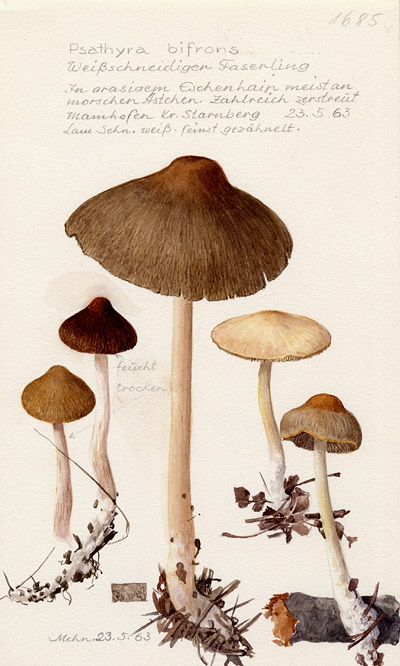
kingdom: Fungi
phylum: Basidiomycota
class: Agaricomycetes
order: Agaricales
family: Psathyrellaceae
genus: Psathyrella
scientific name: Psathyrella bifrons
